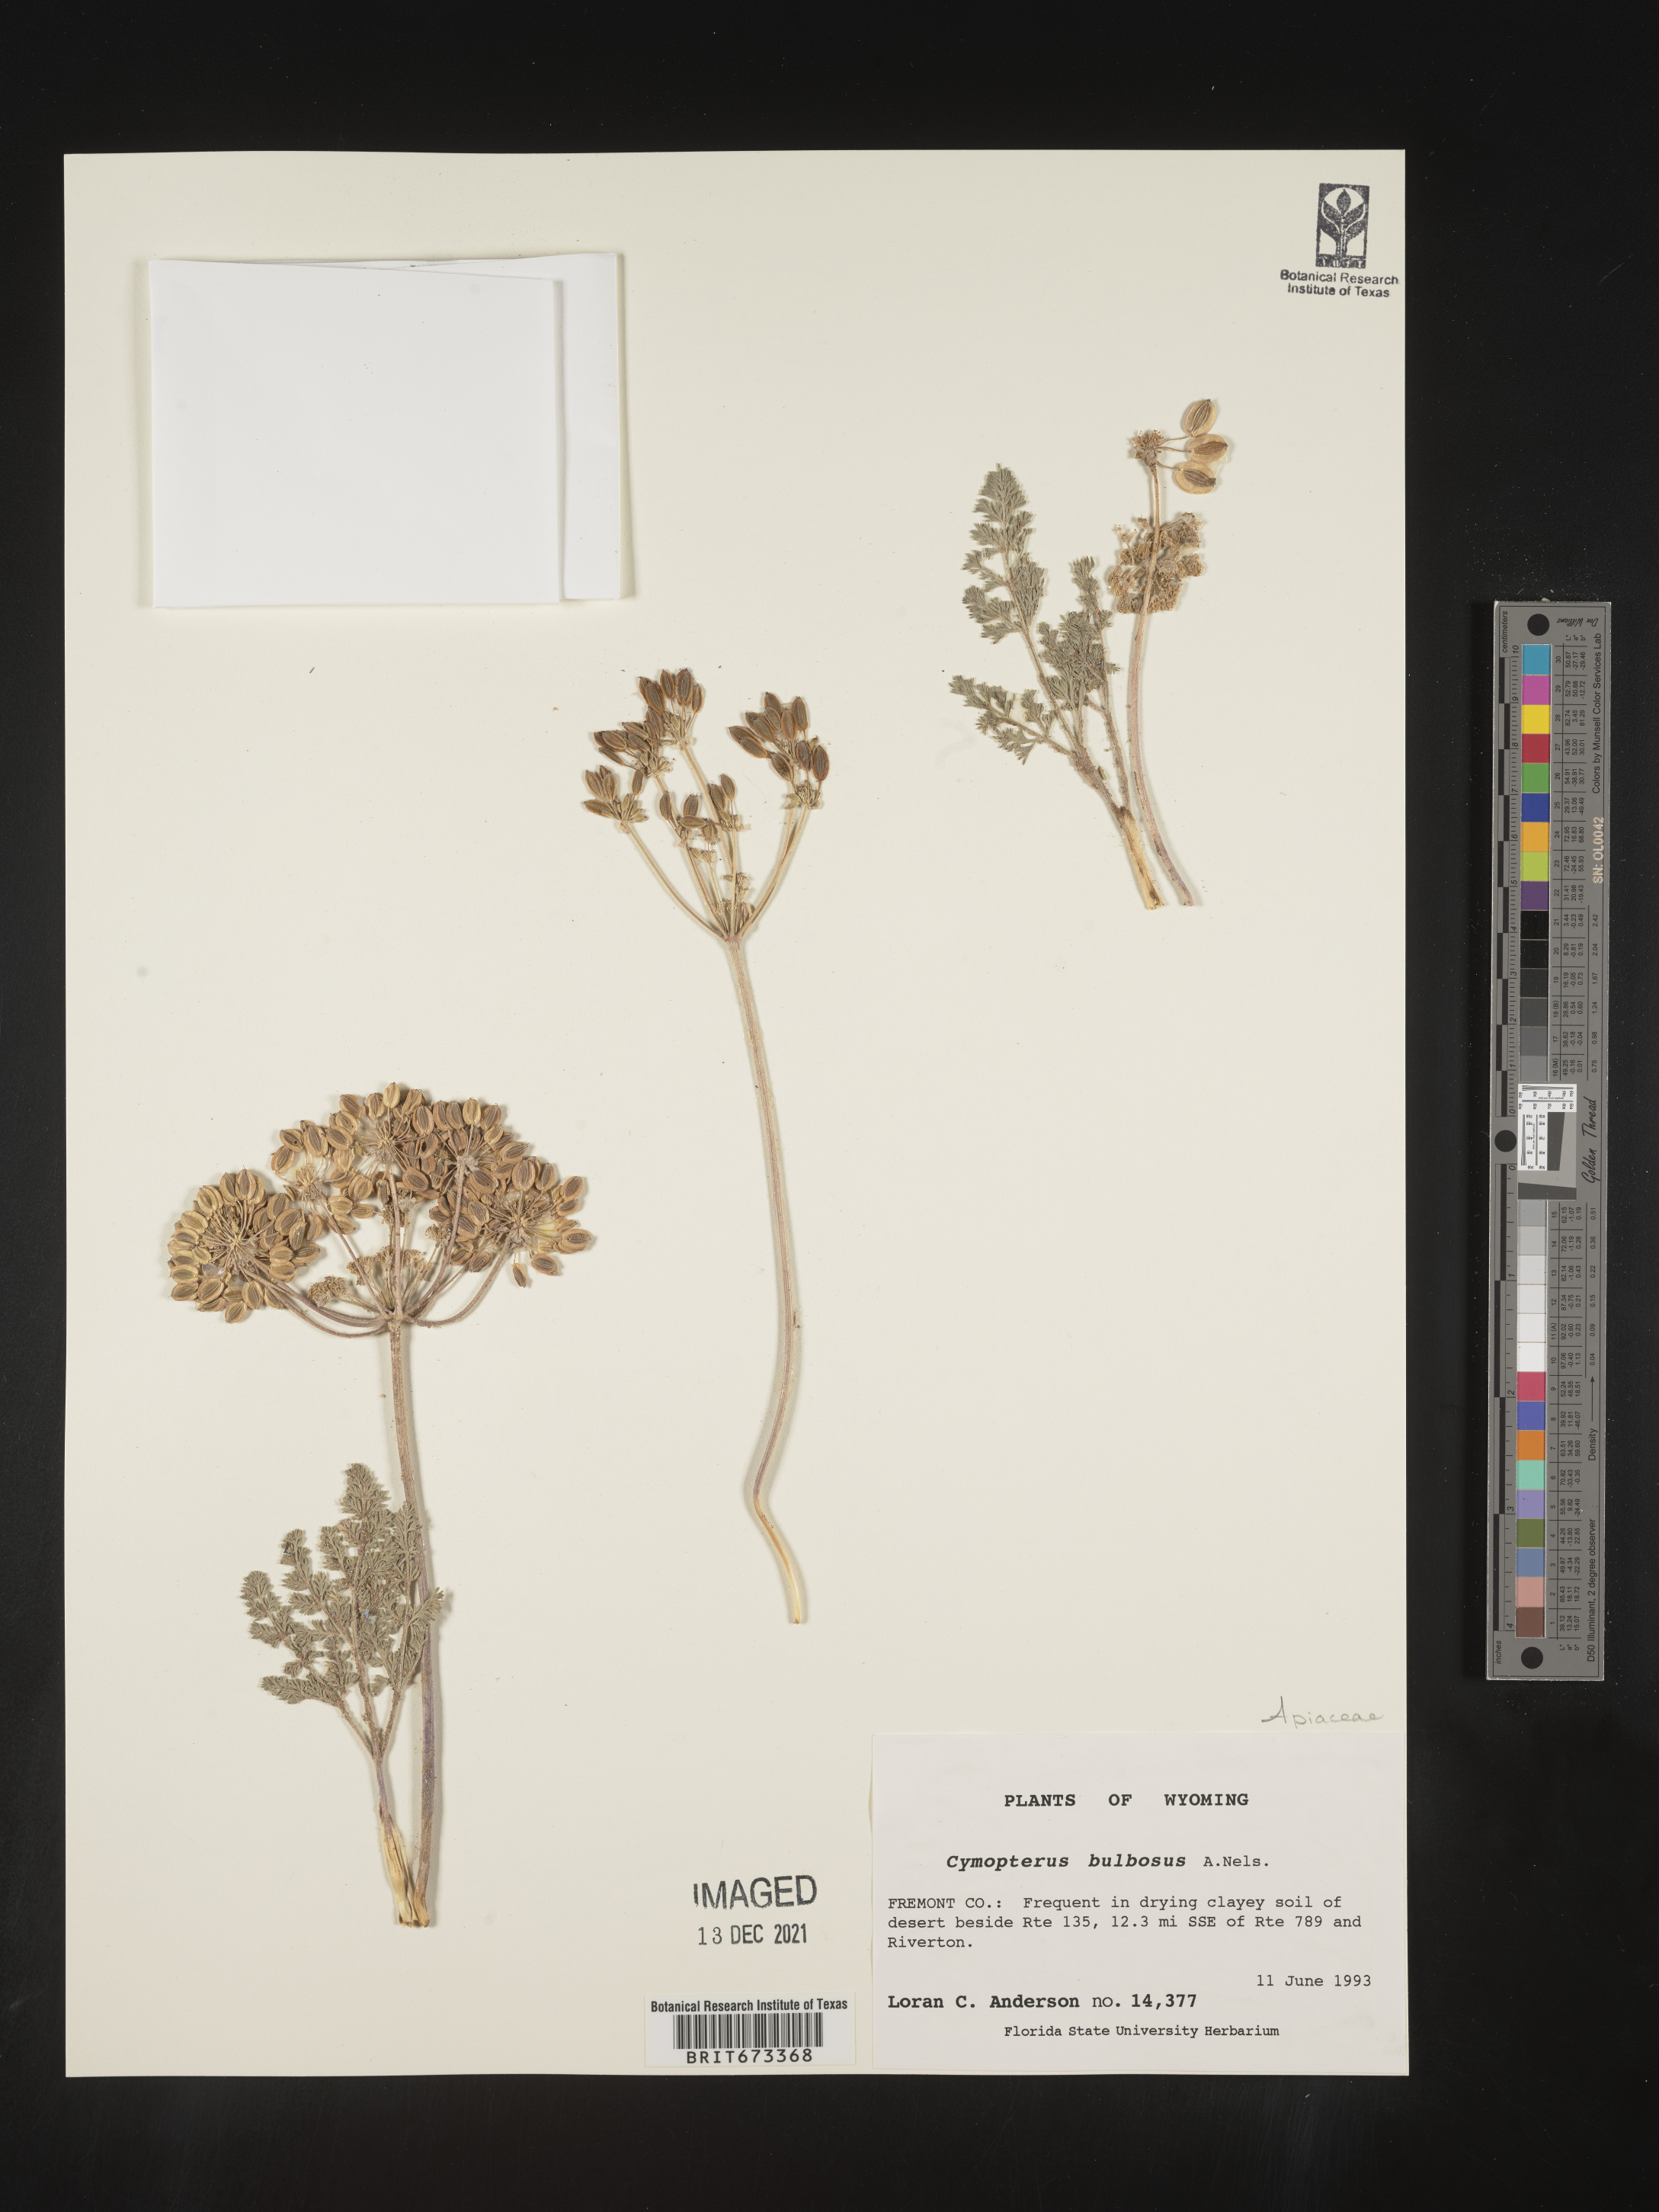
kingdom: Plantae
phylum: Tracheophyta
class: Magnoliopsida
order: Apiales
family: Apiaceae
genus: Vesper
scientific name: Vesper bulbosus
